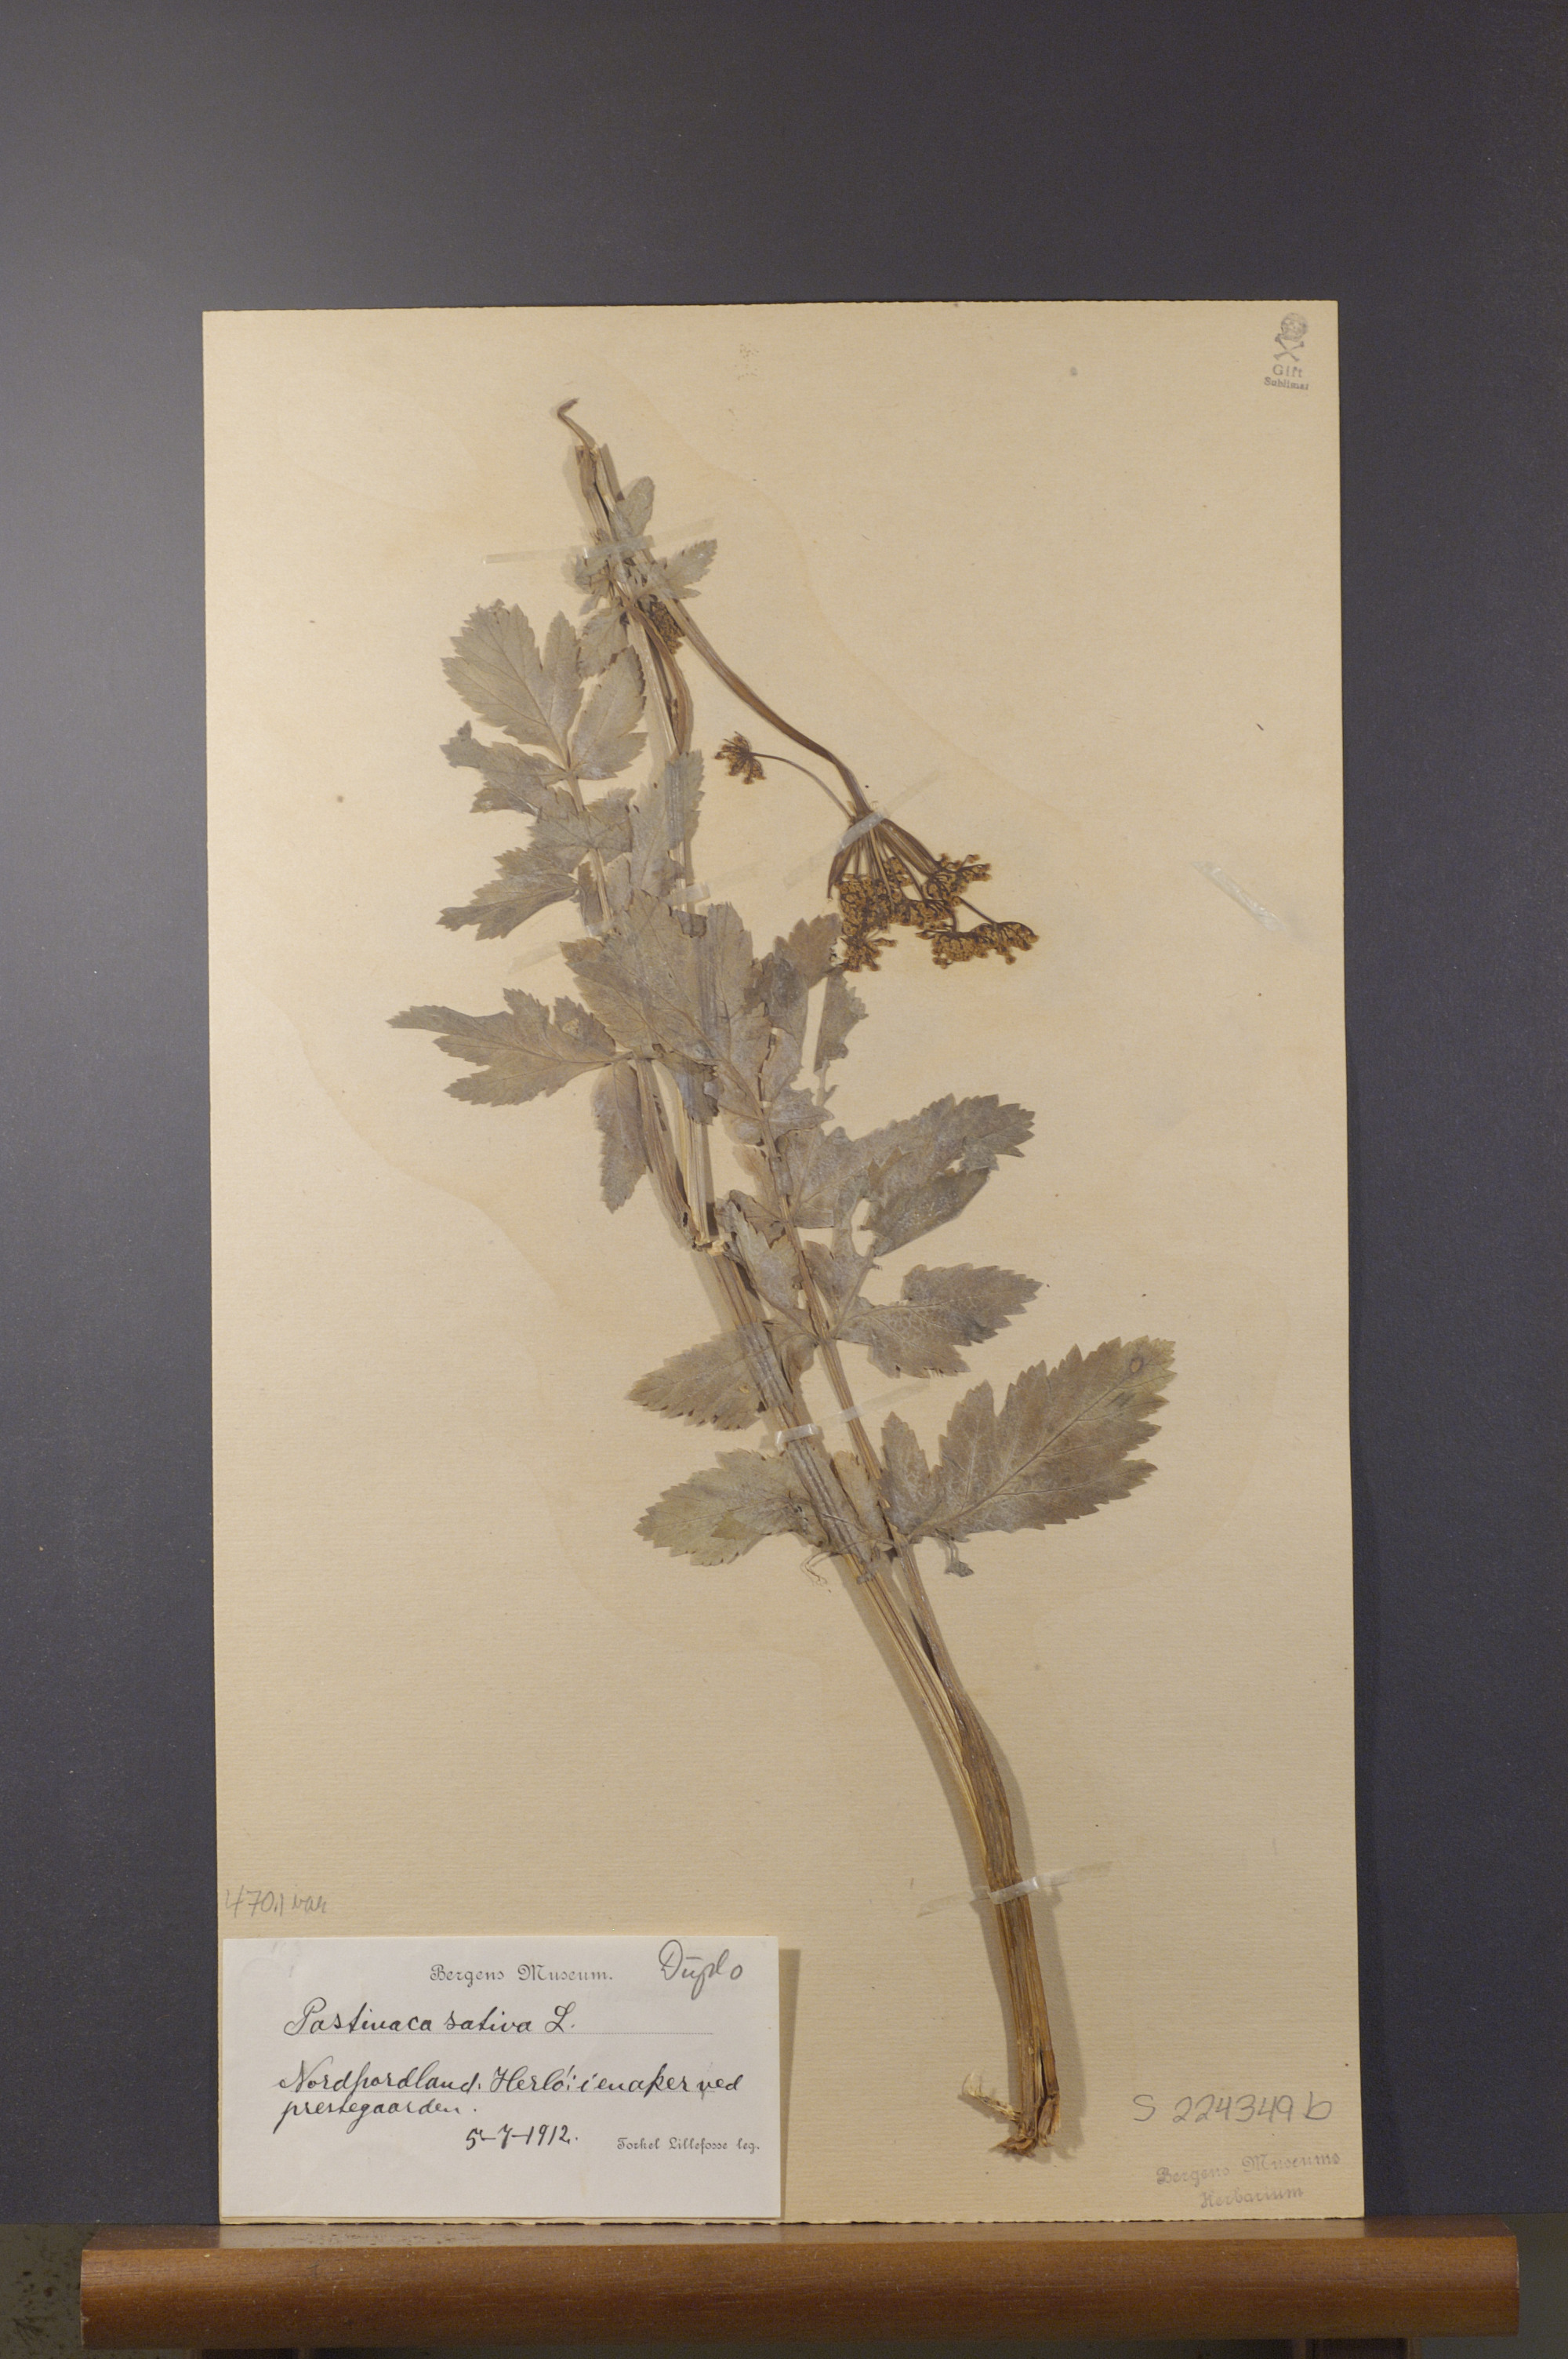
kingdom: Plantae
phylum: Tracheophyta
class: Magnoliopsida
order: Apiales
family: Apiaceae
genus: Pastinaca
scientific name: Pastinaca sativa
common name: Wild parsnip
